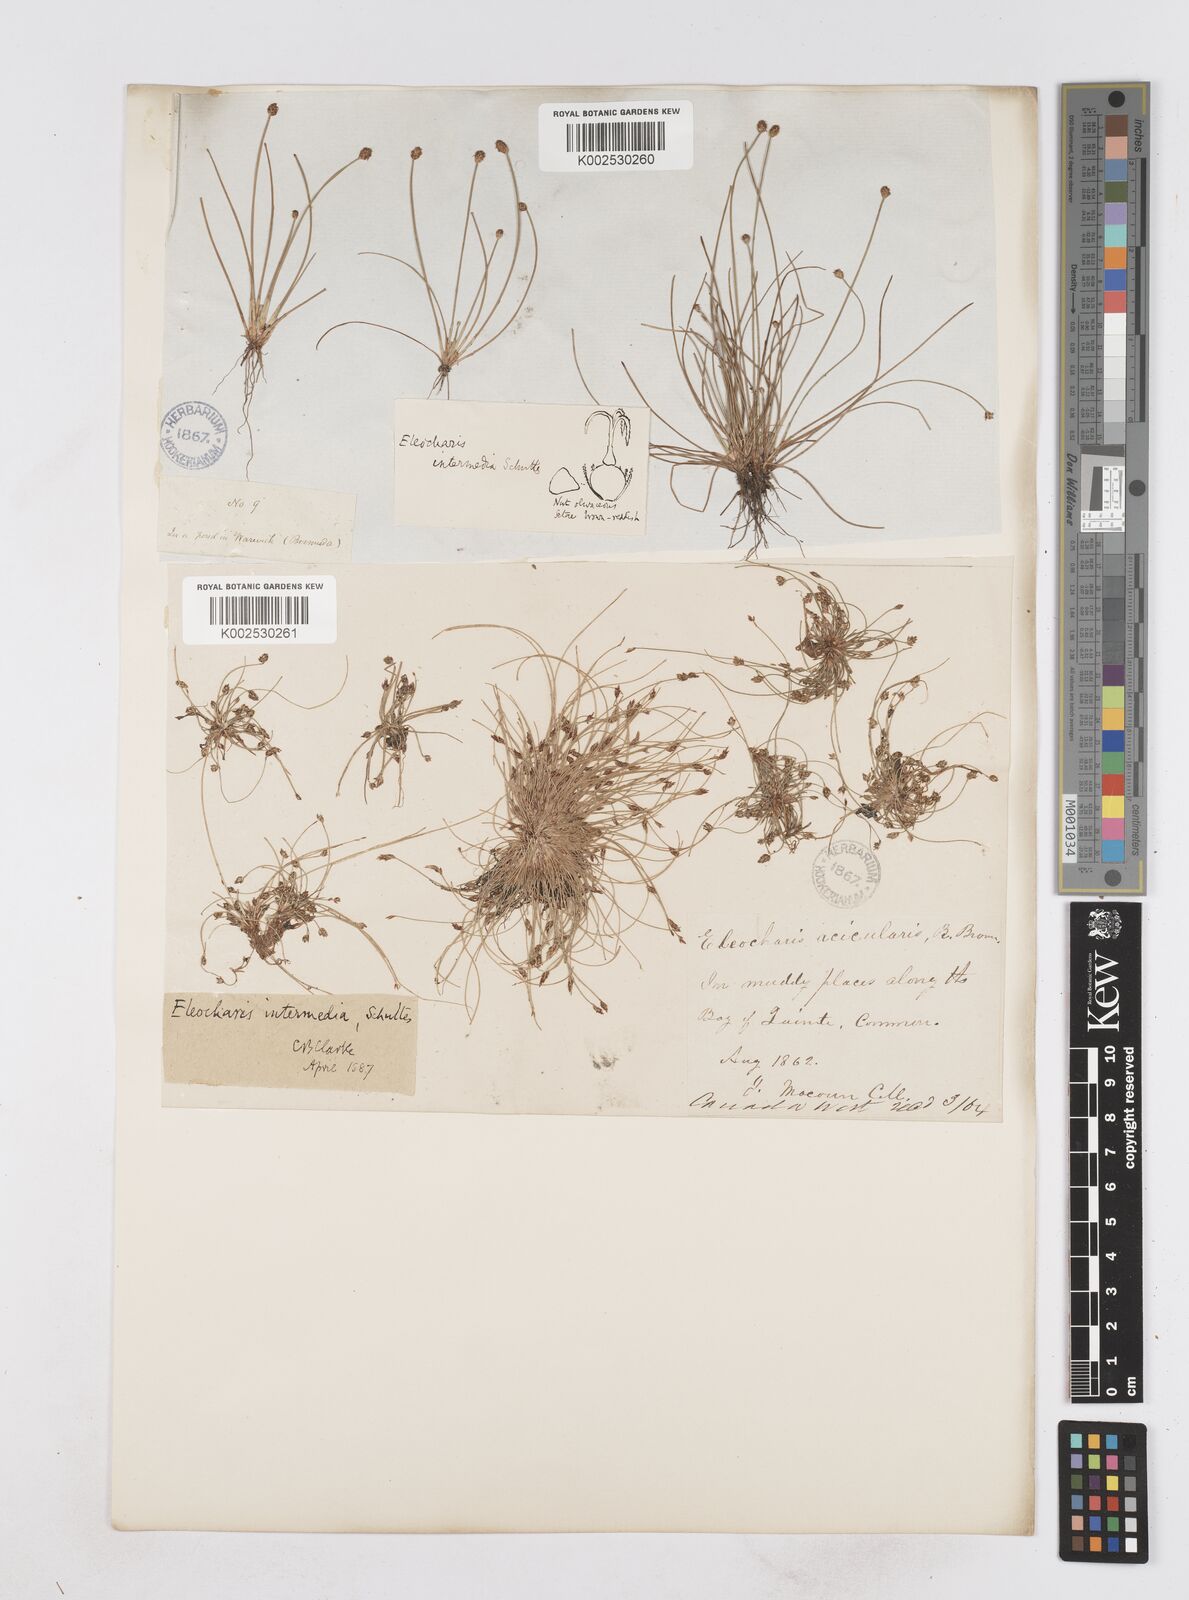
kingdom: Plantae
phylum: Tracheophyta
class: Liliopsida
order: Poales
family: Cyperaceae
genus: Eleocharis
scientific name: Eleocharis intermedia
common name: Intermediate spikerush
